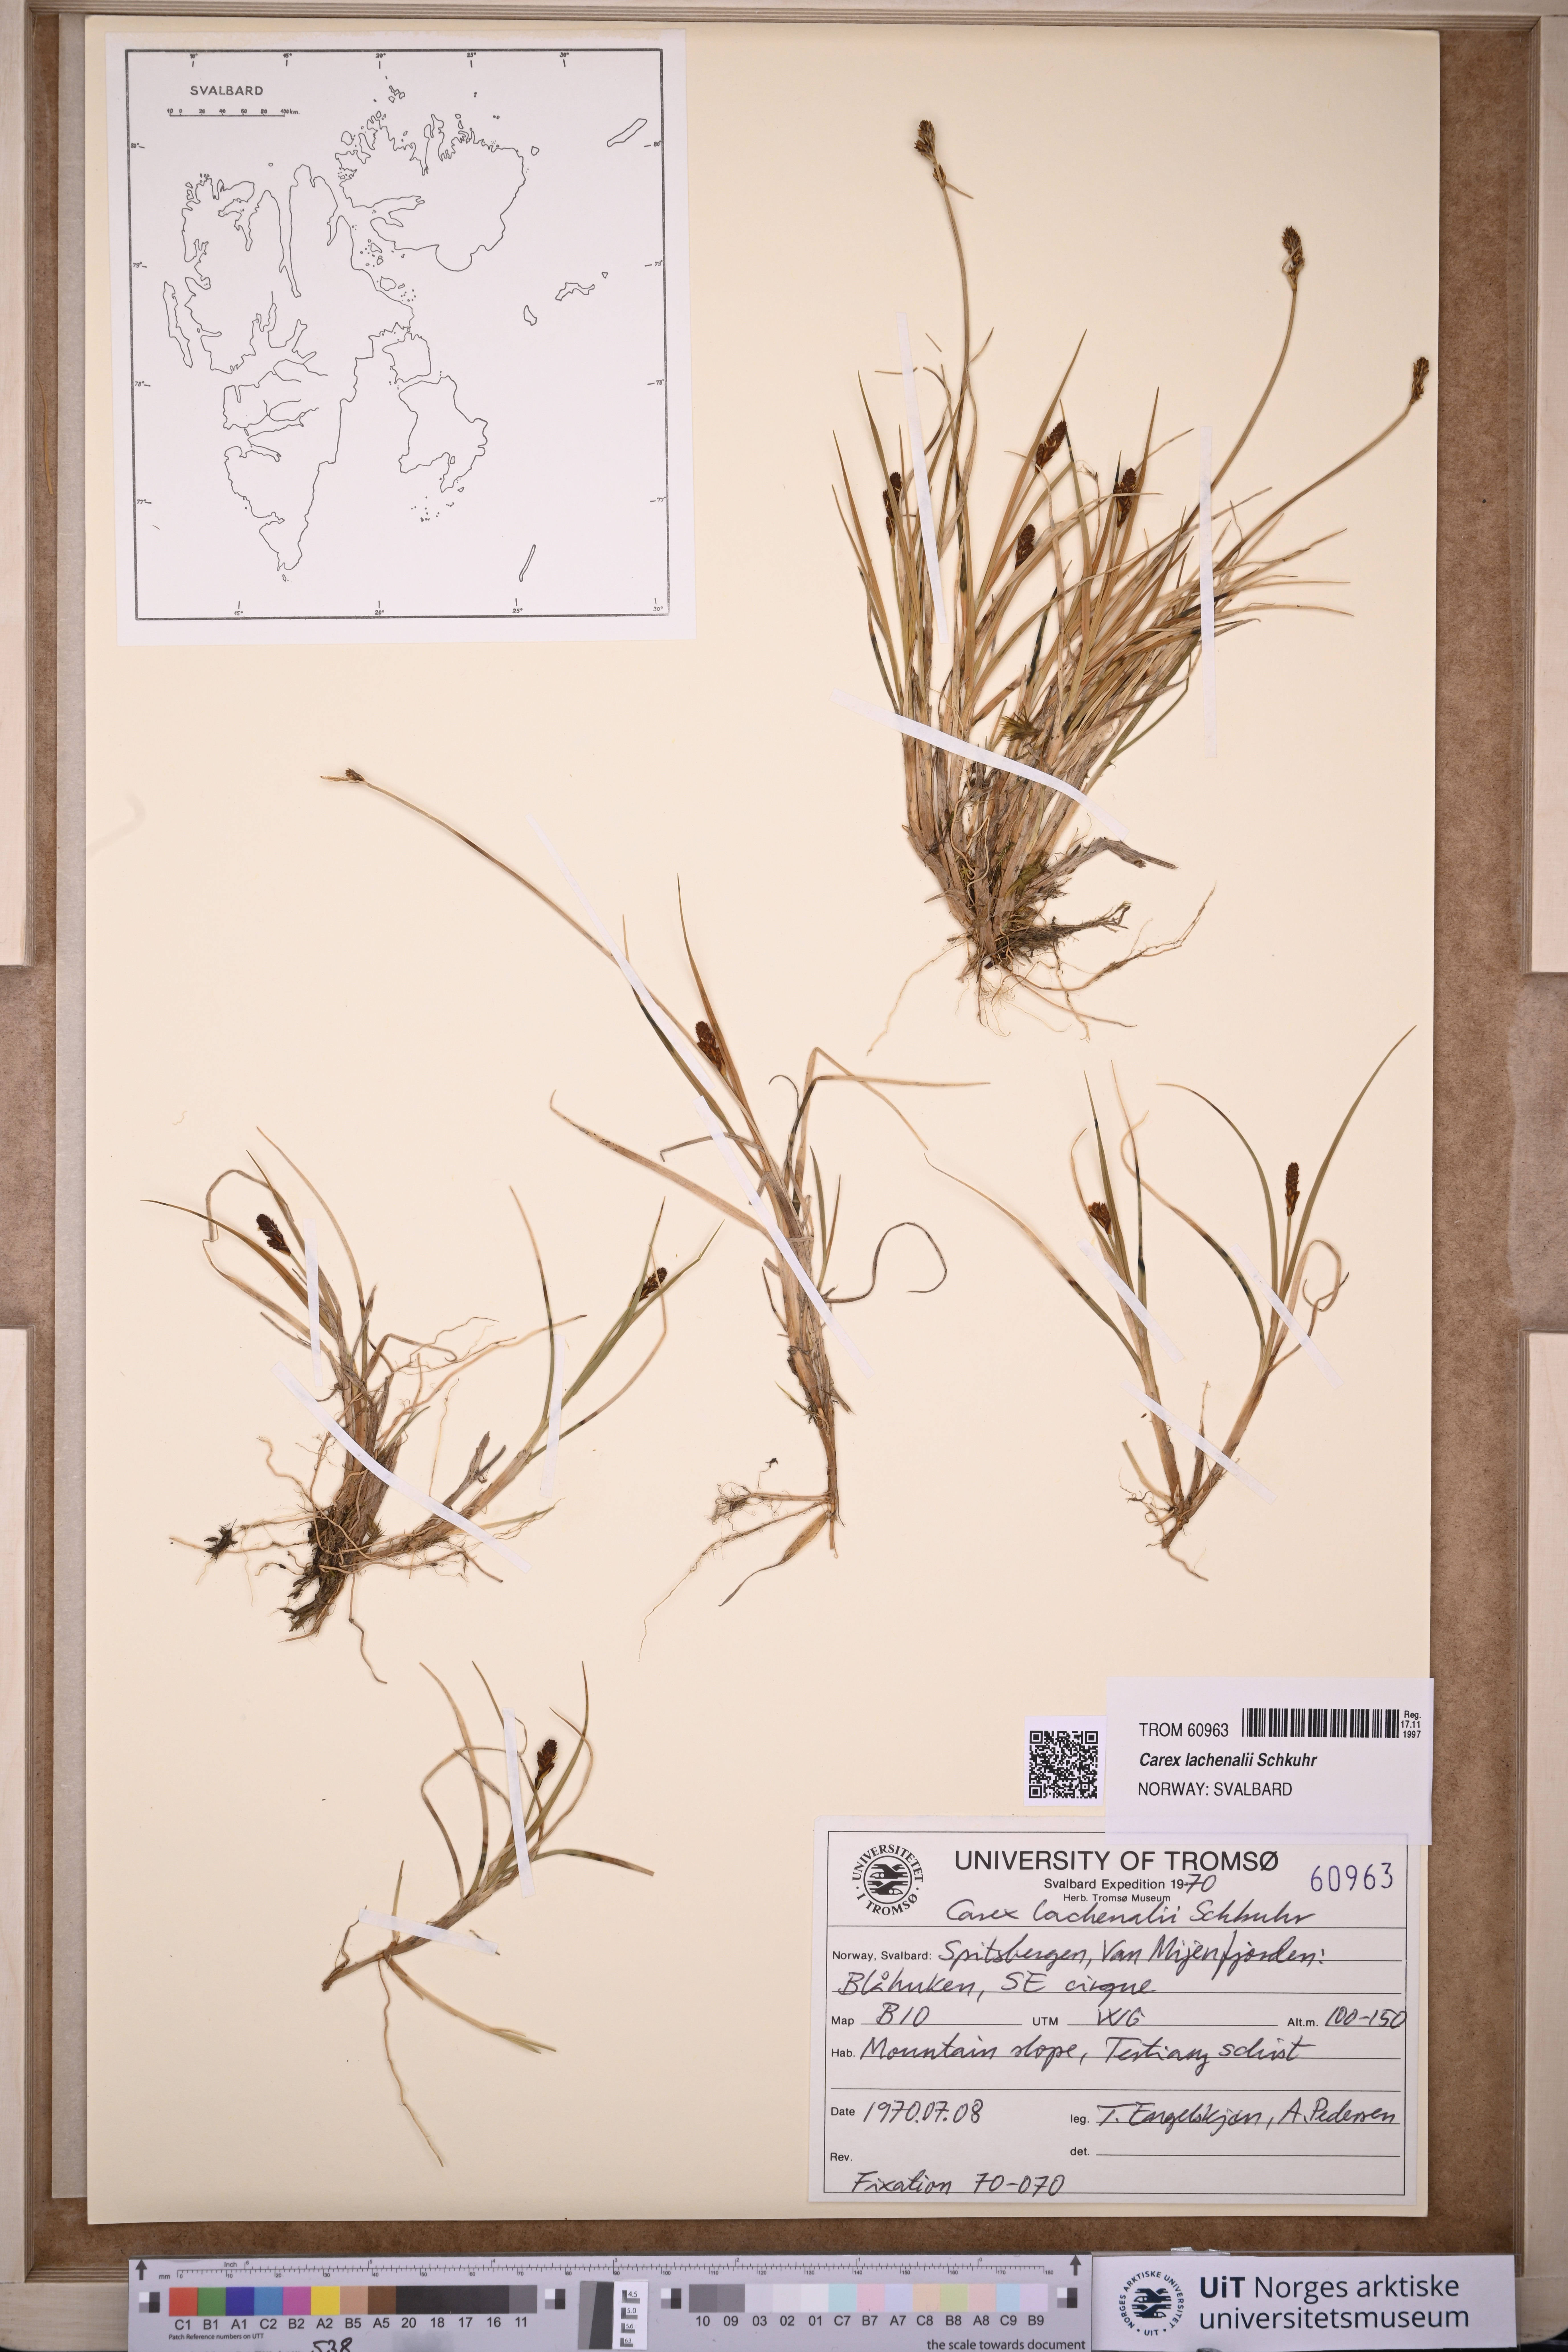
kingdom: Plantae
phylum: Tracheophyta
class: Liliopsida
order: Poales
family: Cyperaceae
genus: Carex
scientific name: Carex lachenalii
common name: Hare's-foot sedge
